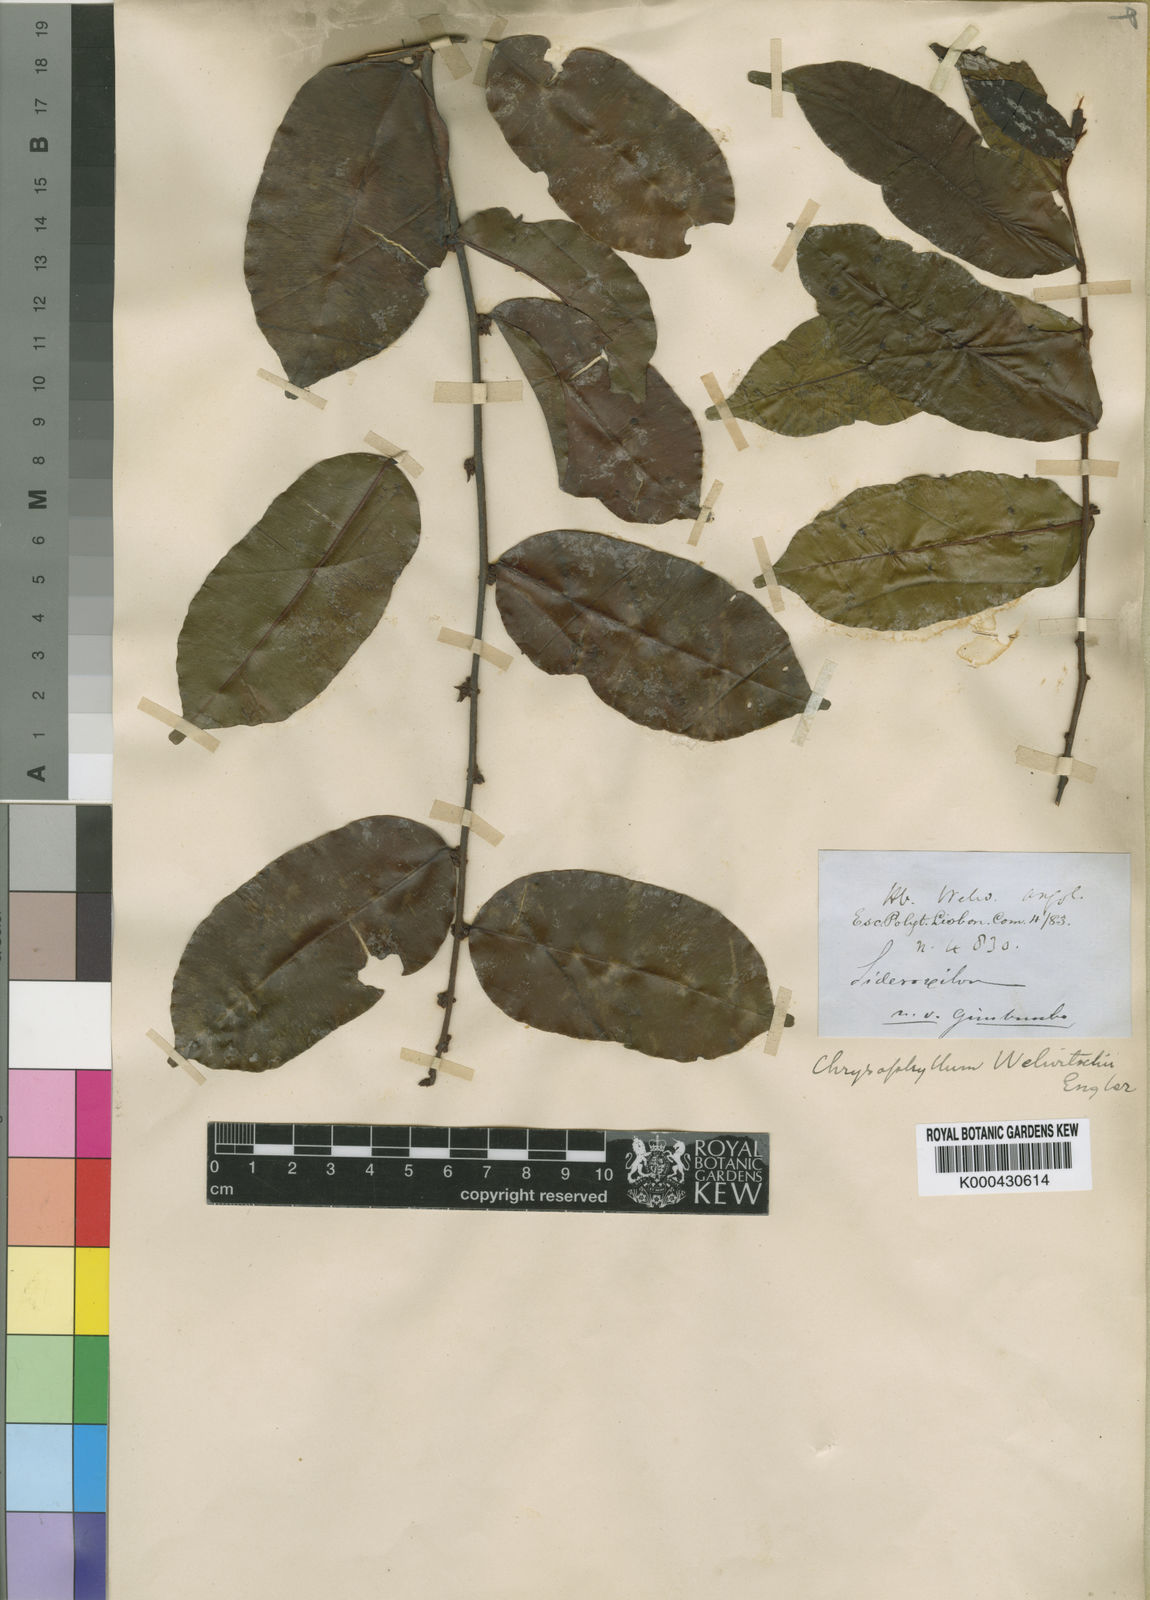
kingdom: Plantae
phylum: Tracheophyta
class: Magnoliopsida
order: Ericales
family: Sapotaceae
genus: Donella
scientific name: Donella welwitschii
